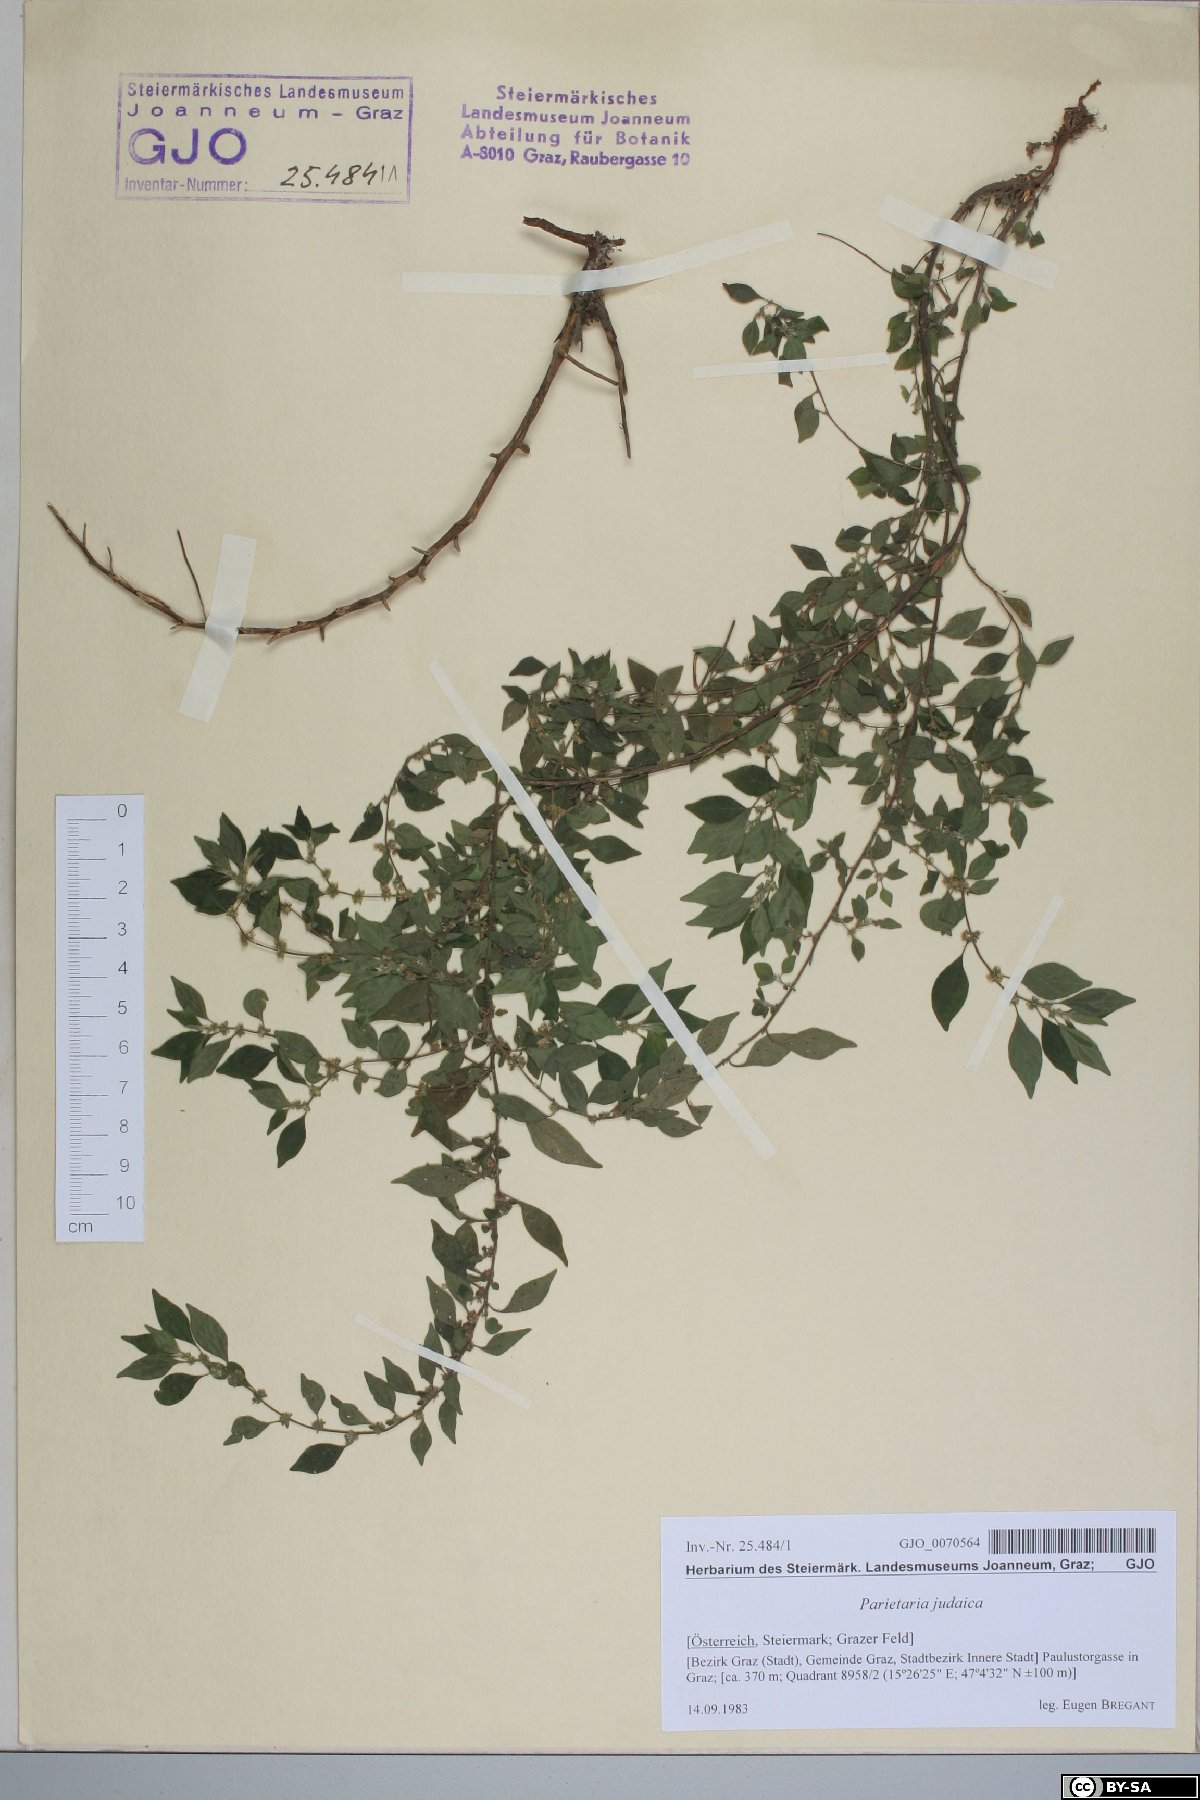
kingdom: Plantae
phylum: Tracheophyta
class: Magnoliopsida
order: Rosales
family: Urticaceae
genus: Parietaria
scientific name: Parietaria judaica
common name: Pellitory-of-the-wall
